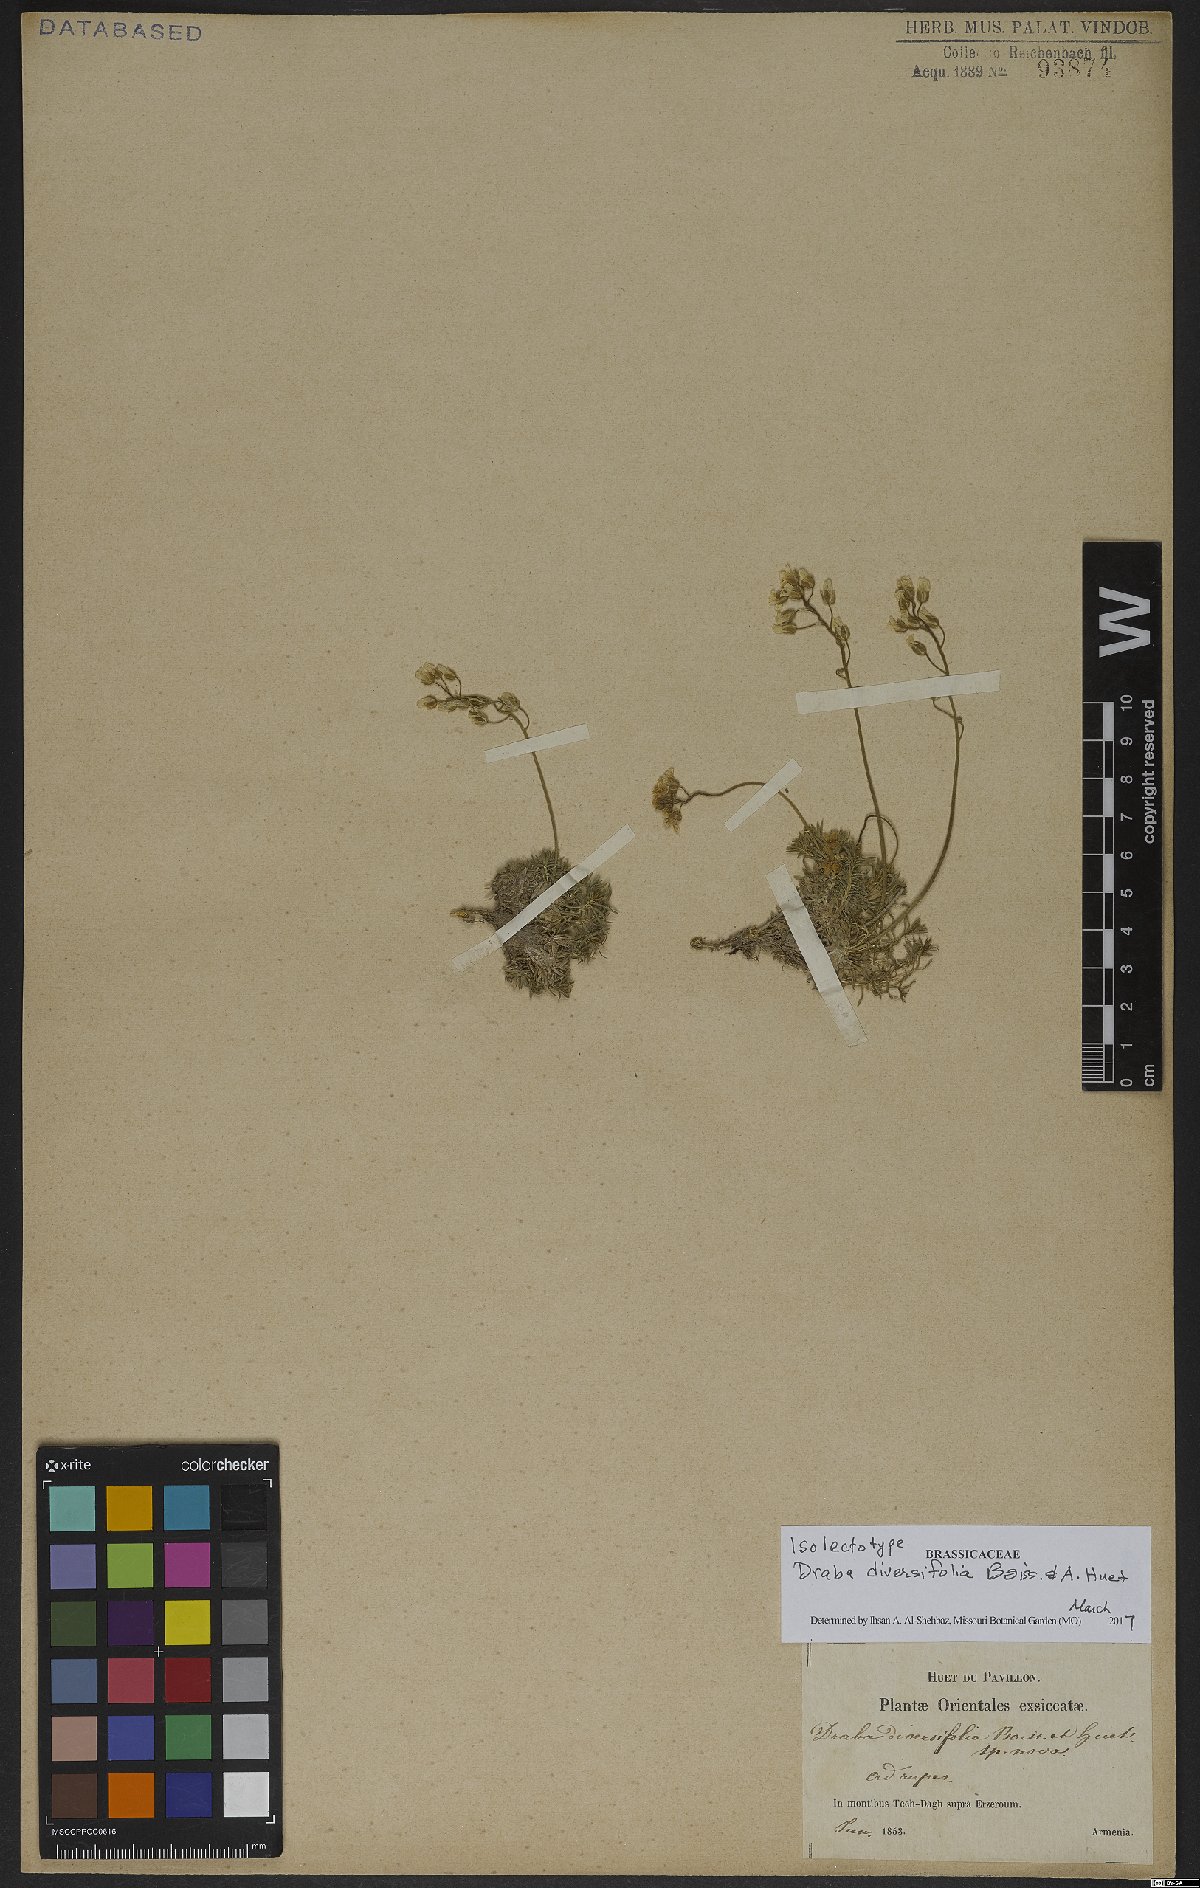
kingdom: Plantae
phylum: Tracheophyta
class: Magnoliopsida
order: Brassicales
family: Brassicaceae
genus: Draba
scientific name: Draba bruniifolia
